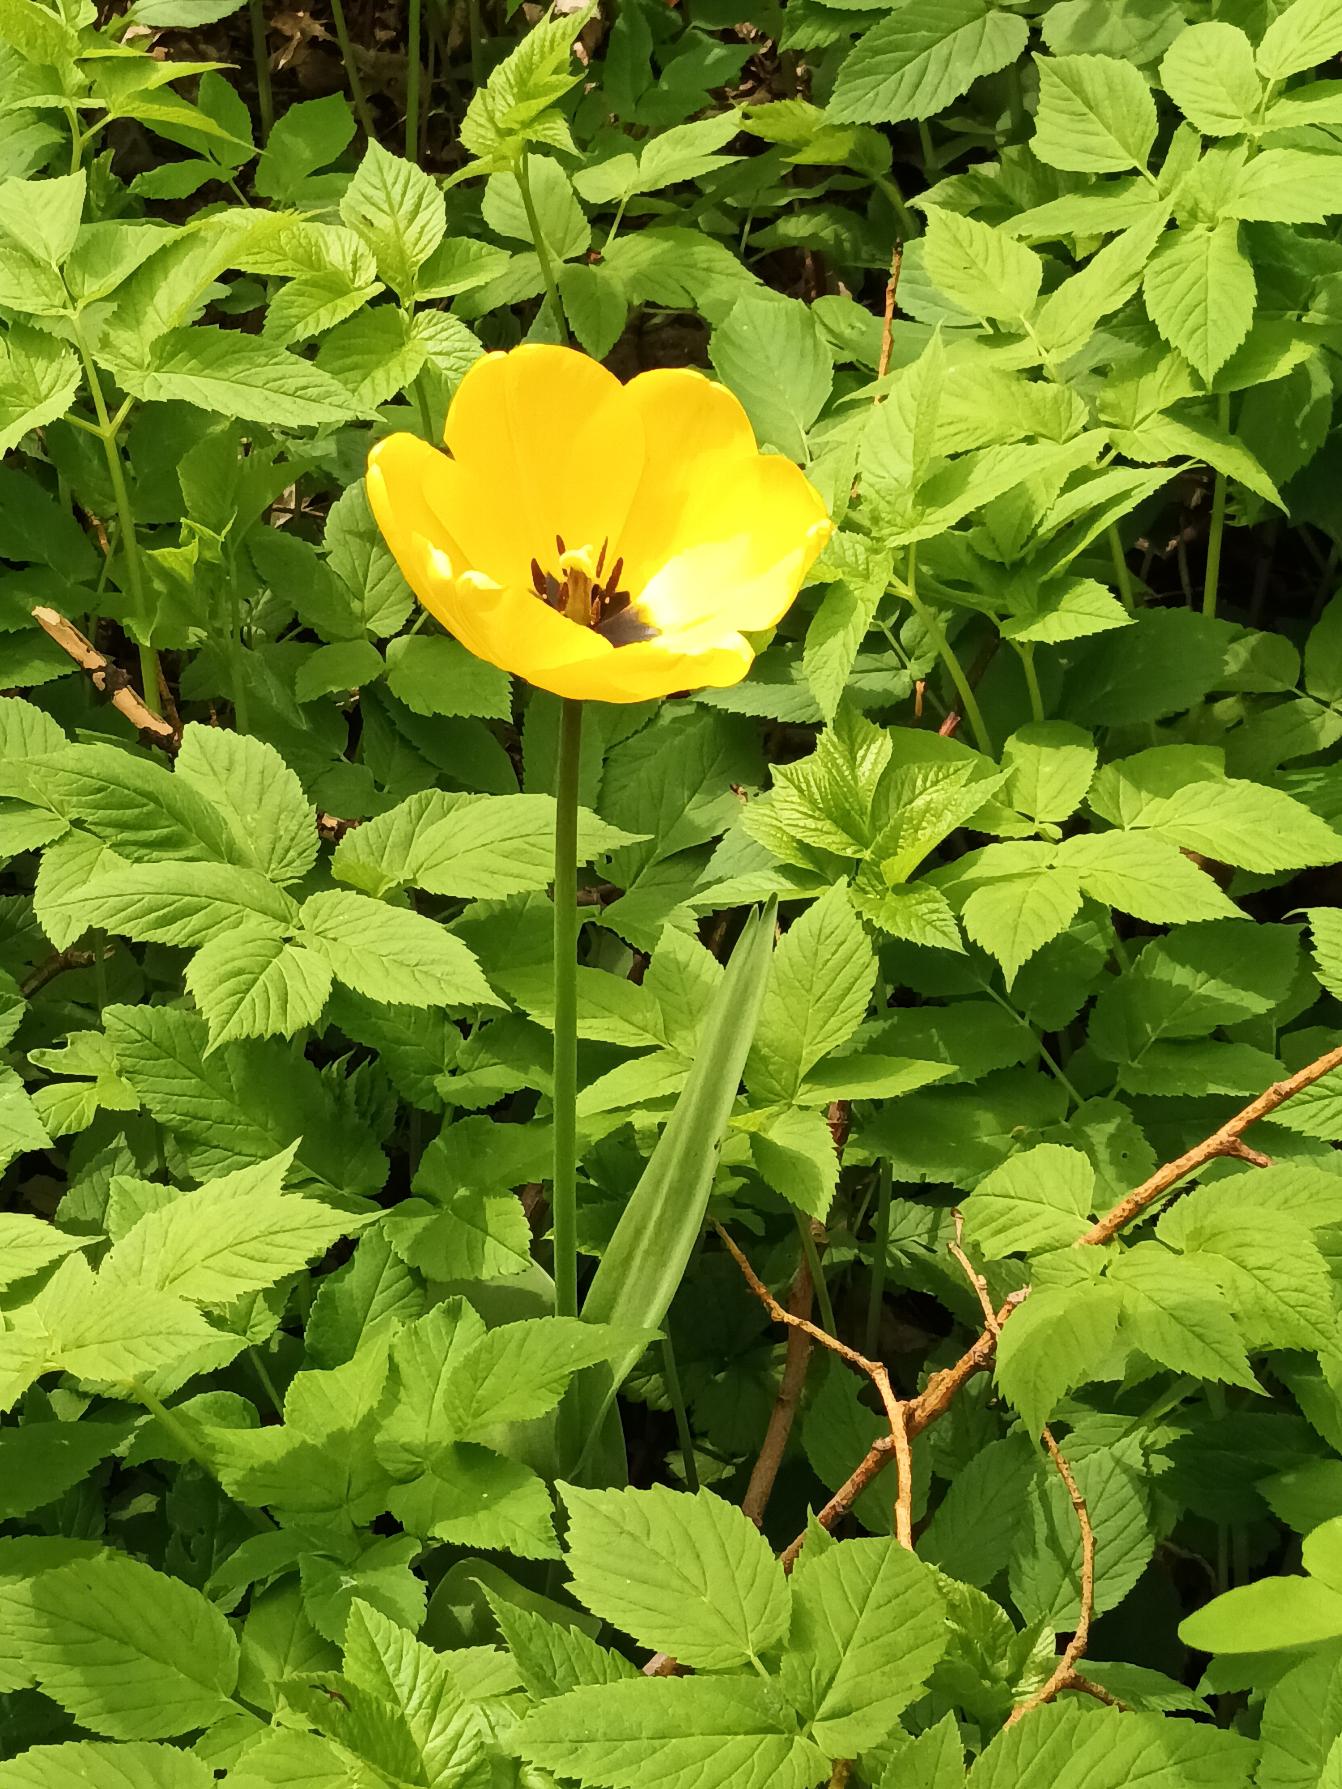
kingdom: Plantae
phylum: Tracheophyta
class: Liliopsida
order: Liliales
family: Liliaceae
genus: Tulipa
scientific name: Tulipa gesneriana
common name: Have-tulipan
